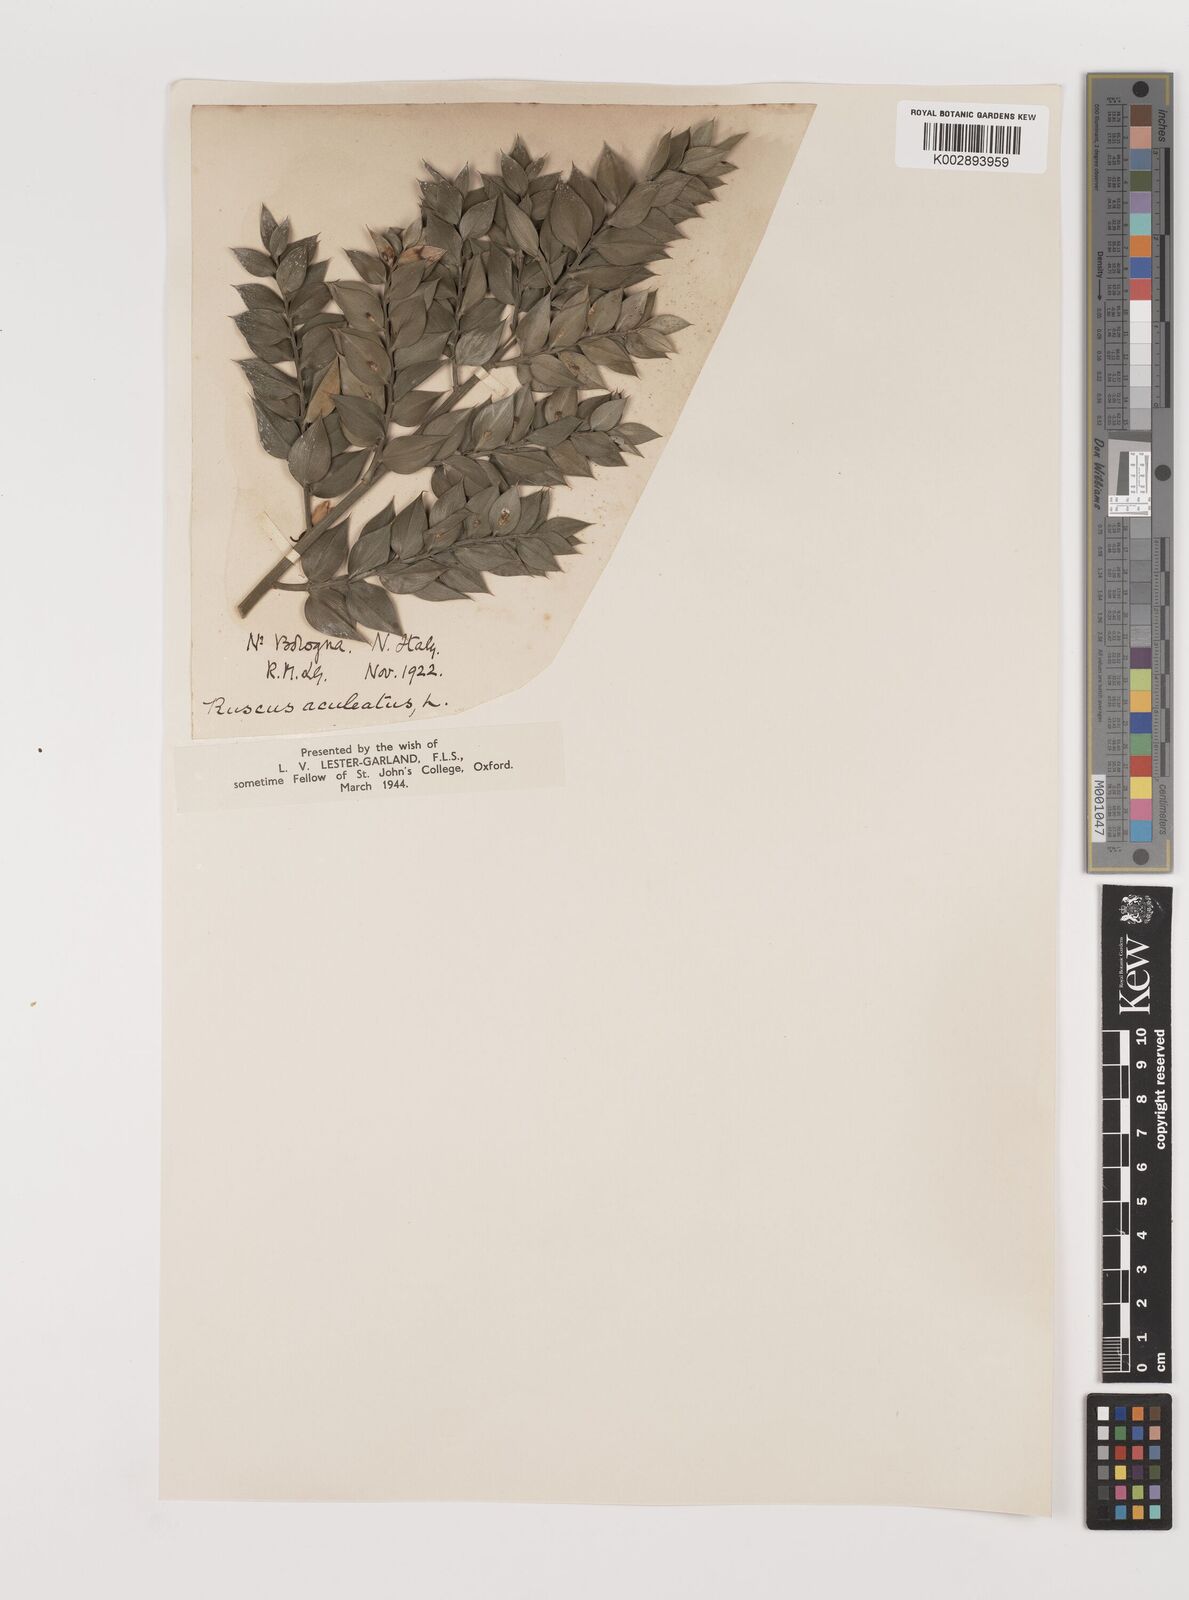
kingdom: Plantae
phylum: Tracheophyta
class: Liliopsida
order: Asparagales
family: Asparagaceae
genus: Ruscus
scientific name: Ruscus
